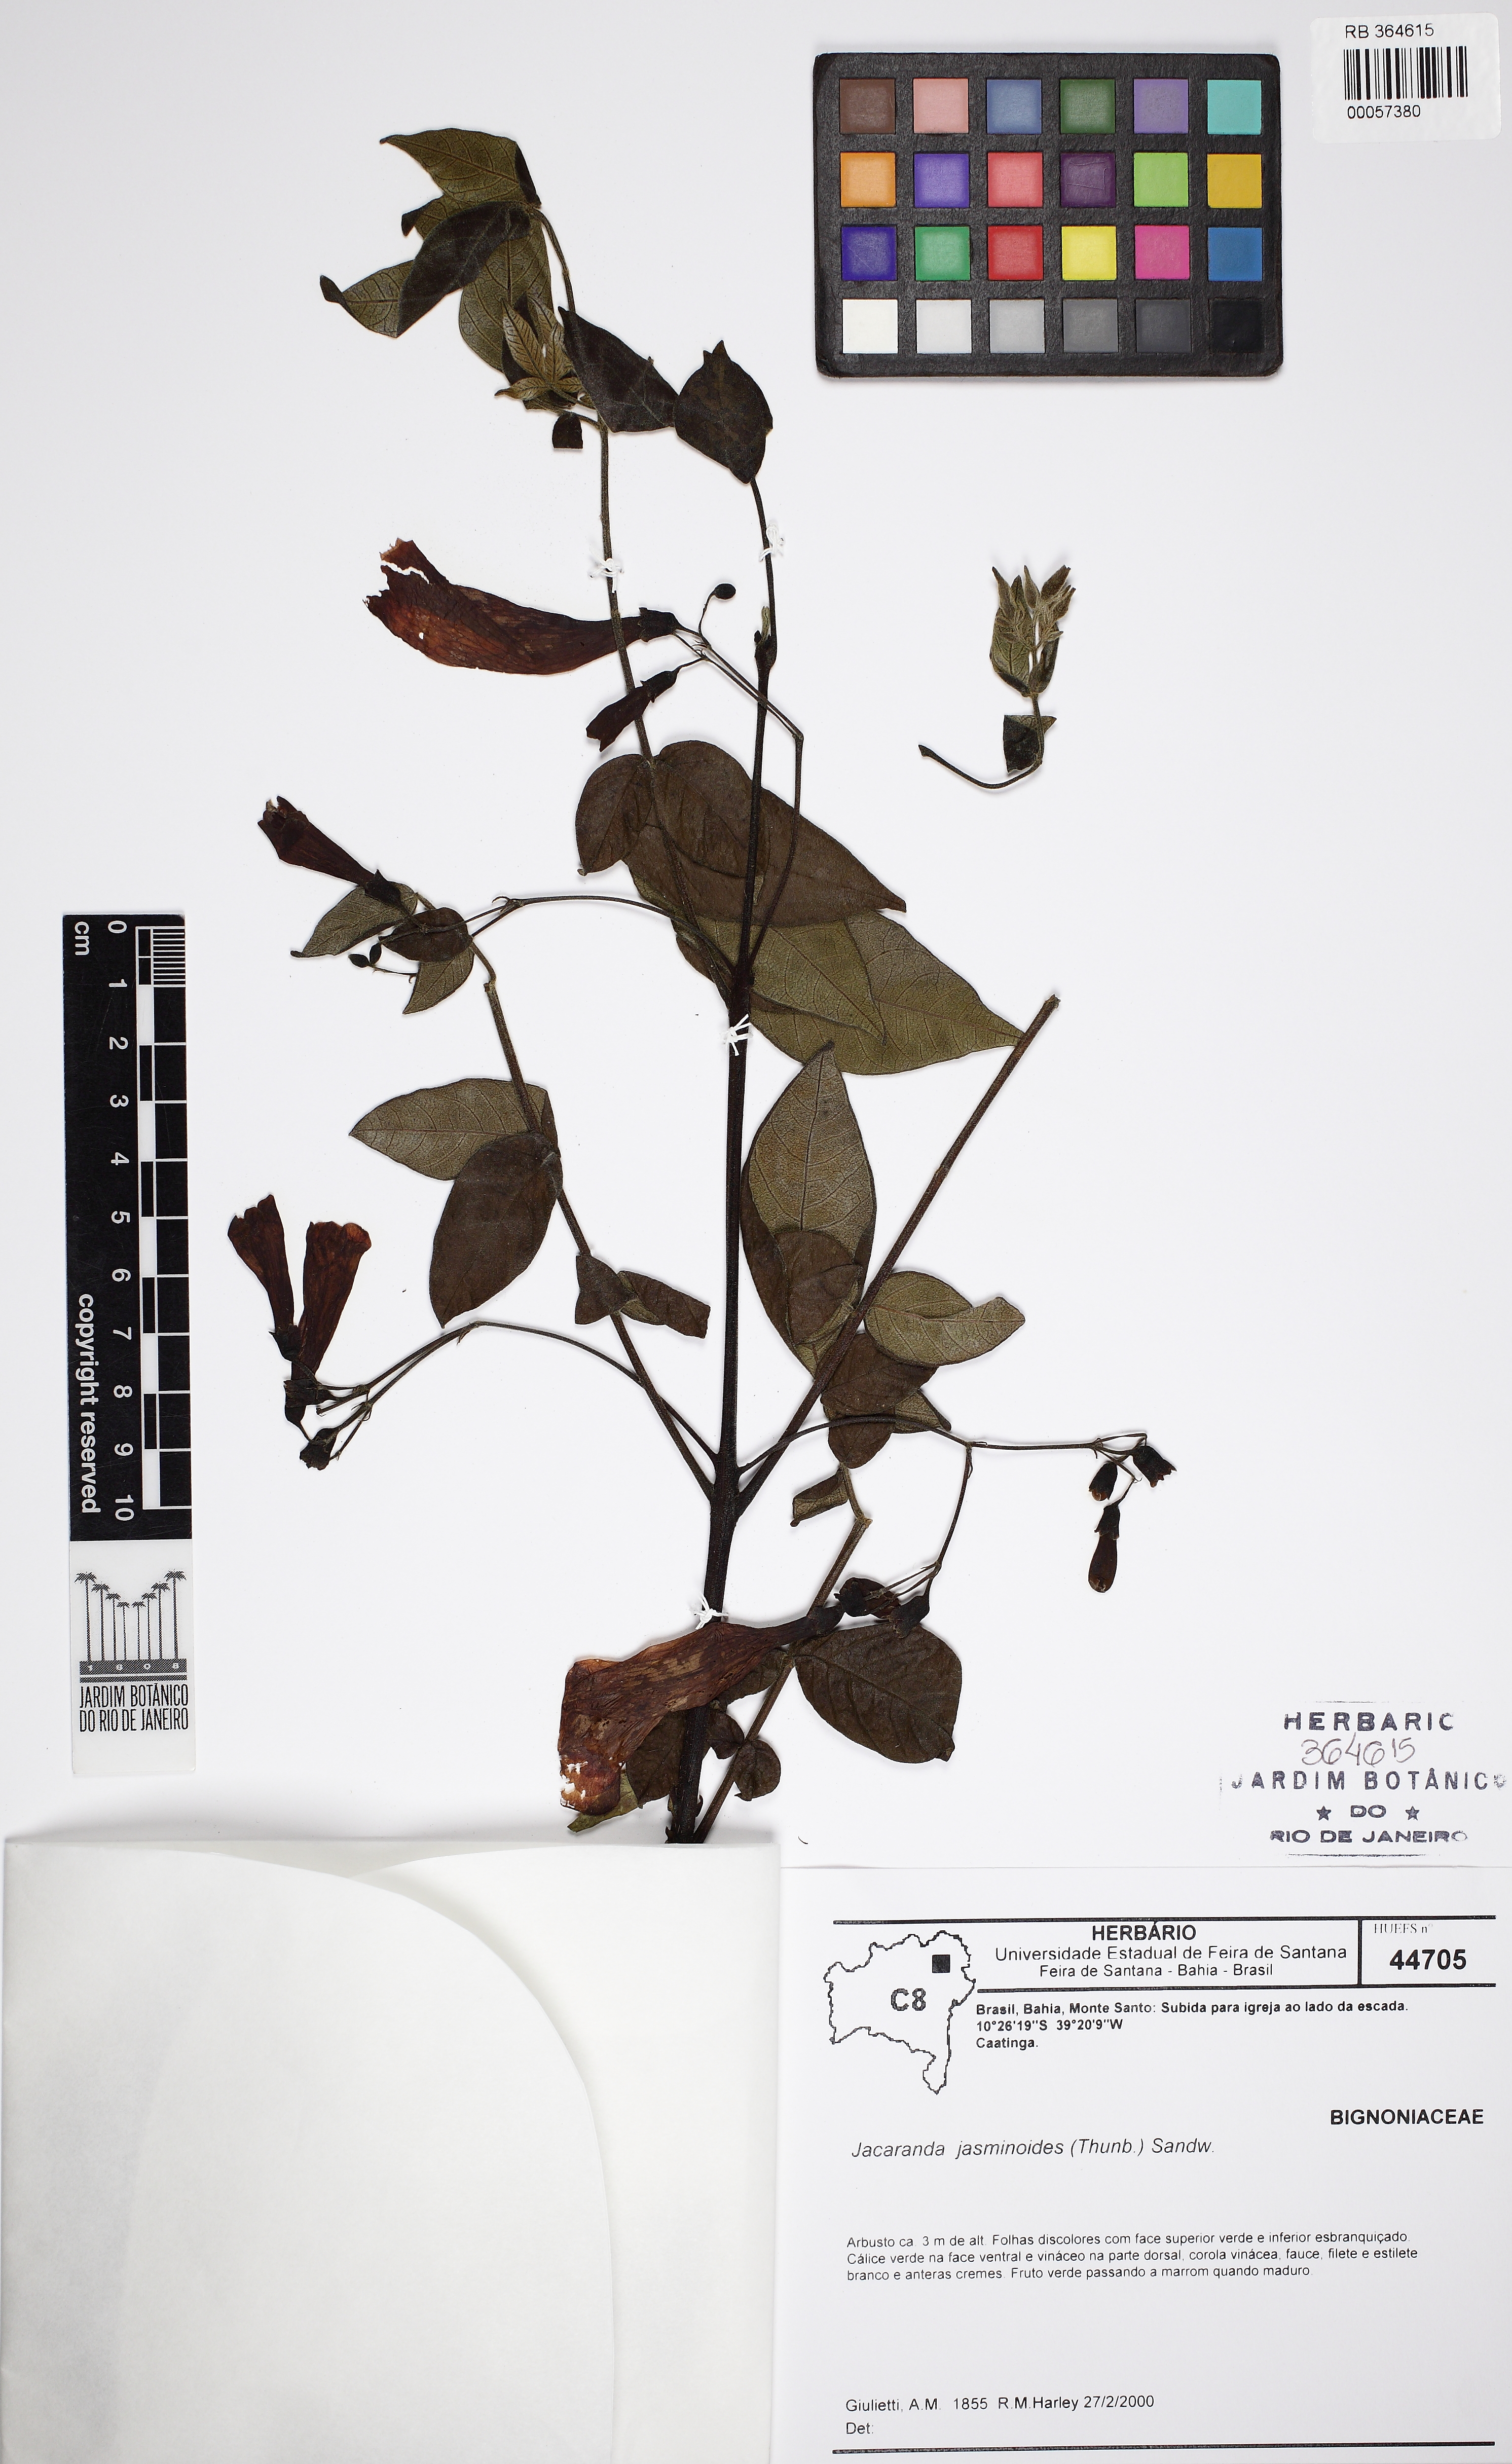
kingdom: Plantae
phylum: Tracheophyta
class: Magnoliopsida
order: Lamiales
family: Bignoniaceae
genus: Jacaranda
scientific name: Jacaranda jasminoides
